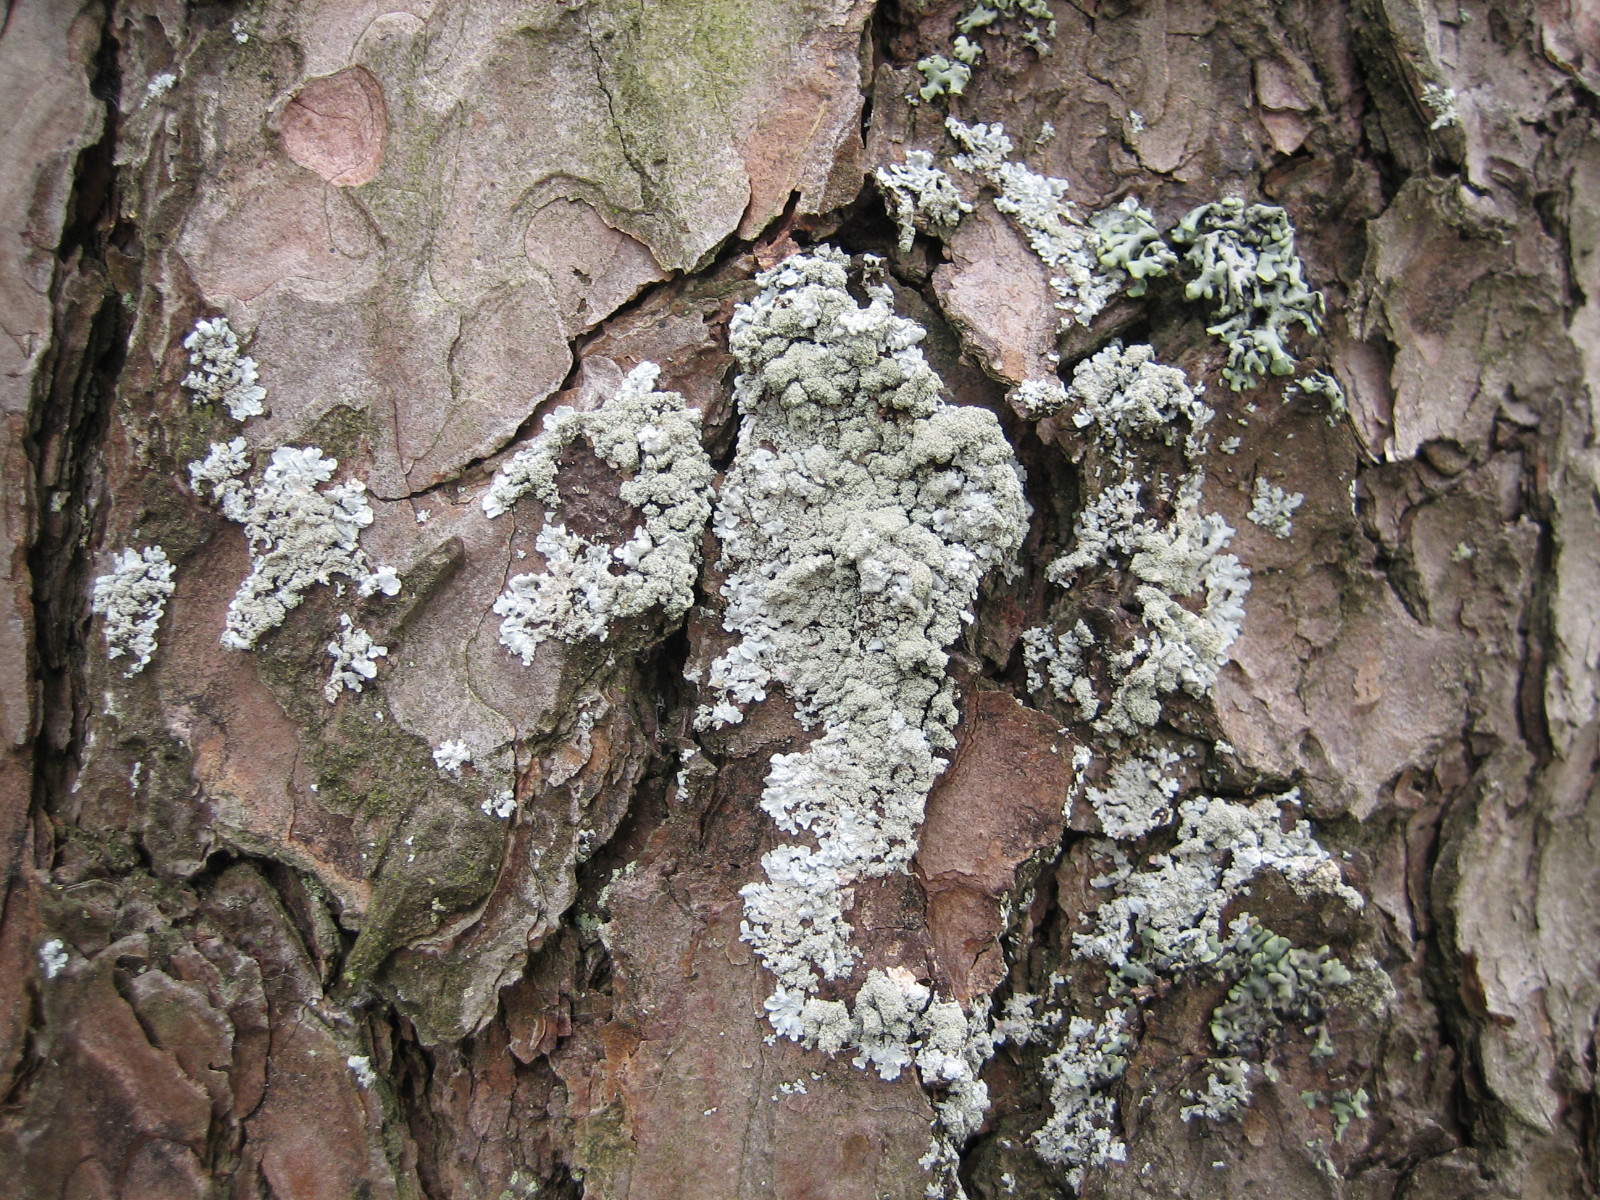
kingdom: Fungi
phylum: Ascomycota
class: Lecanoromycetes
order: Lecanorales
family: Parmeliaceae
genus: Imshaugia
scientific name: Imshaugia aleurites
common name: kliddet stolpelav
